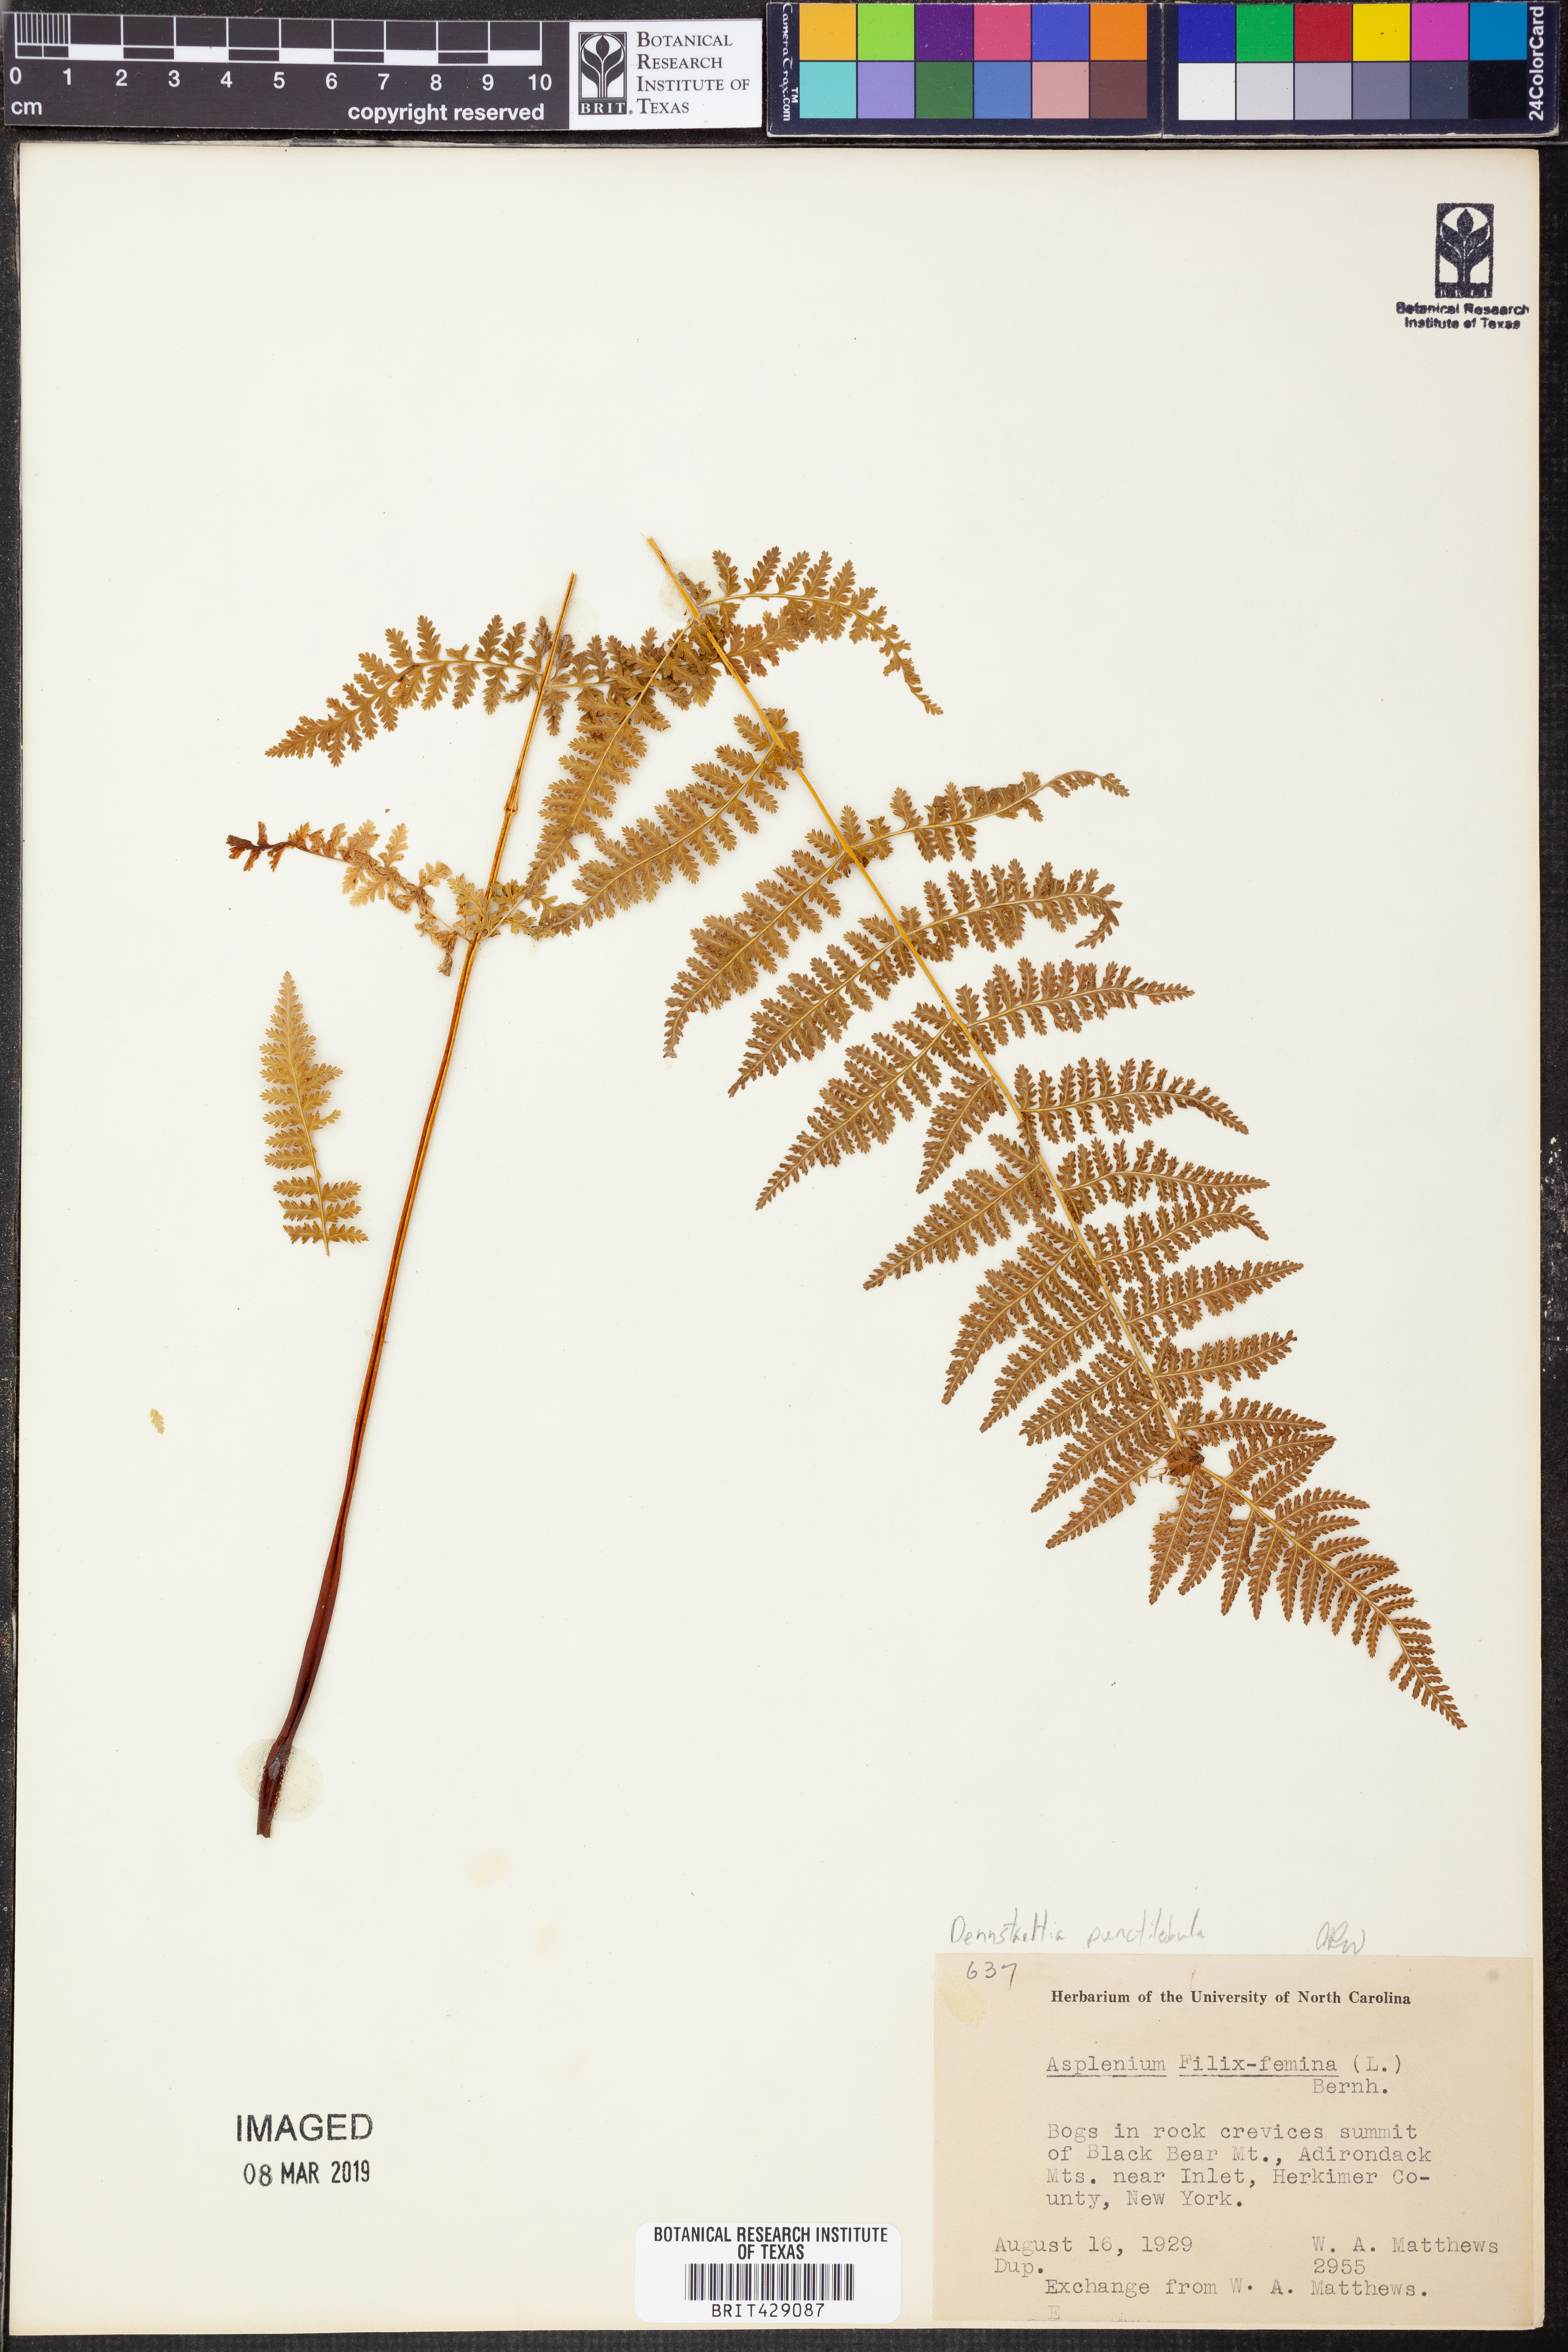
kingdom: Plantae
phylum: Tracheophyta
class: Polypodiopsida
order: Polypodiales
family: Dennstaedtiaceae
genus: Sitobolium
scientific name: Sitobolium punctilobum
